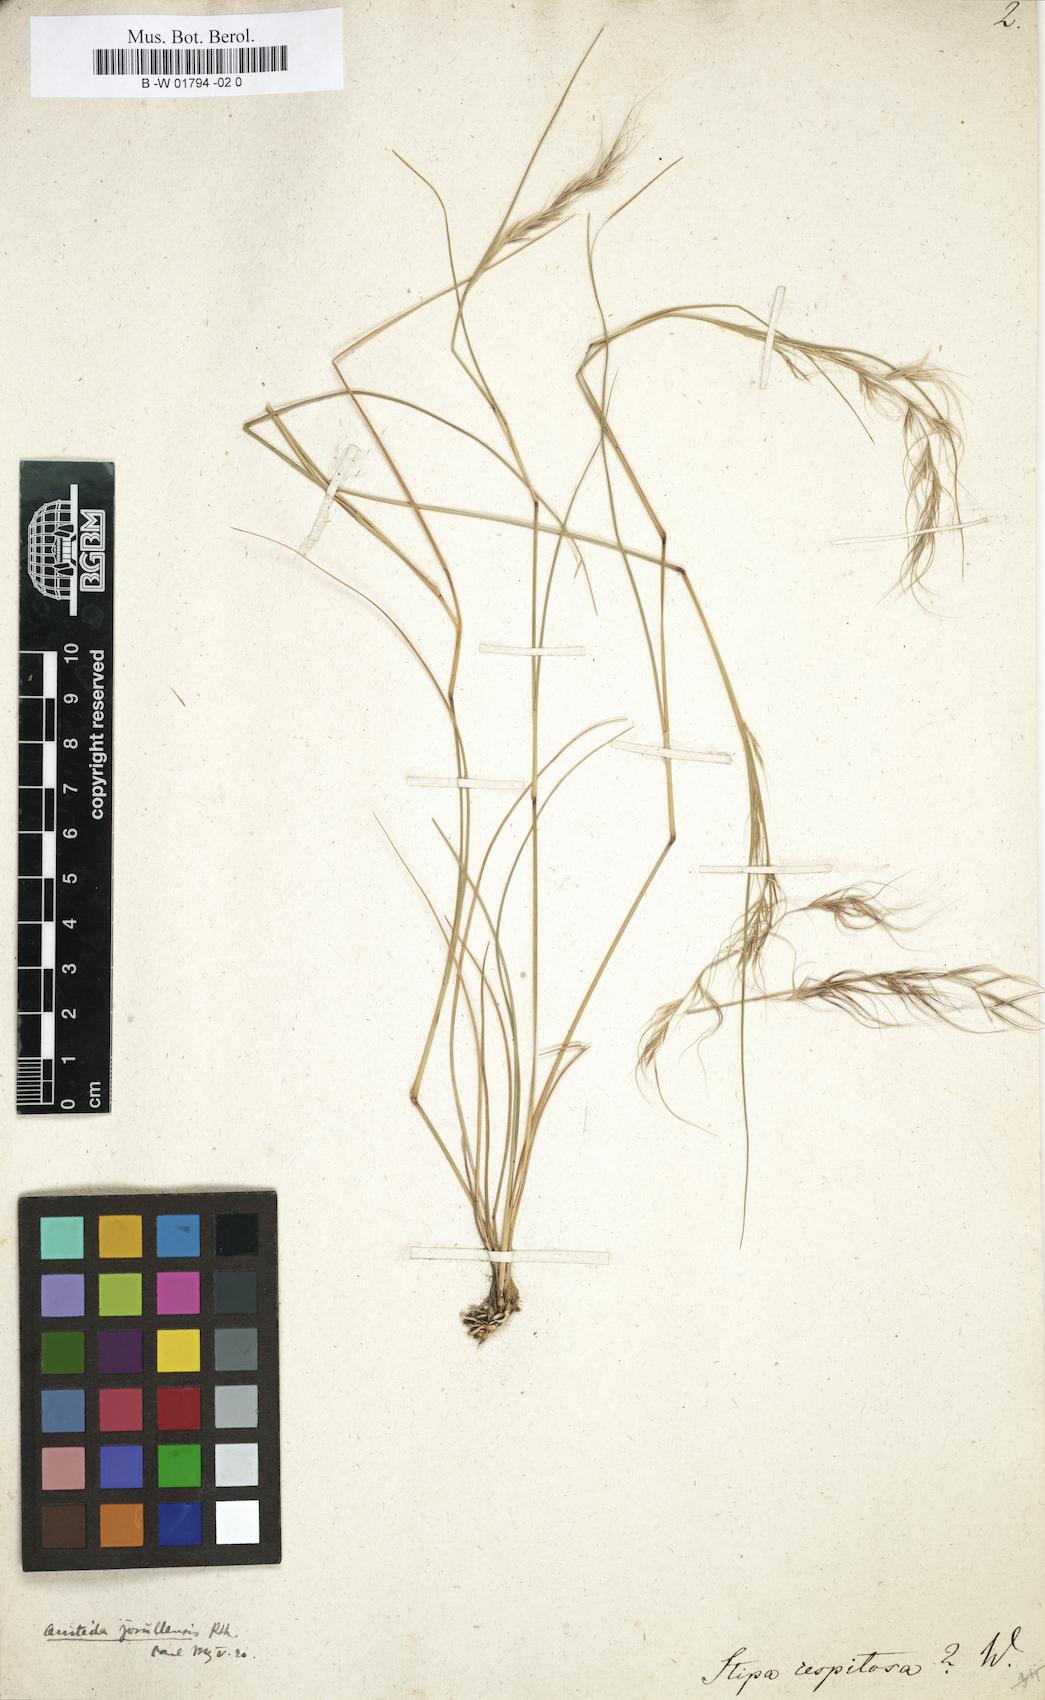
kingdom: Plantae
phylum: Tracheophyta
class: Liliopsida
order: Poales
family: Poaceae
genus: Aristida
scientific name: Aristida jorullensis
